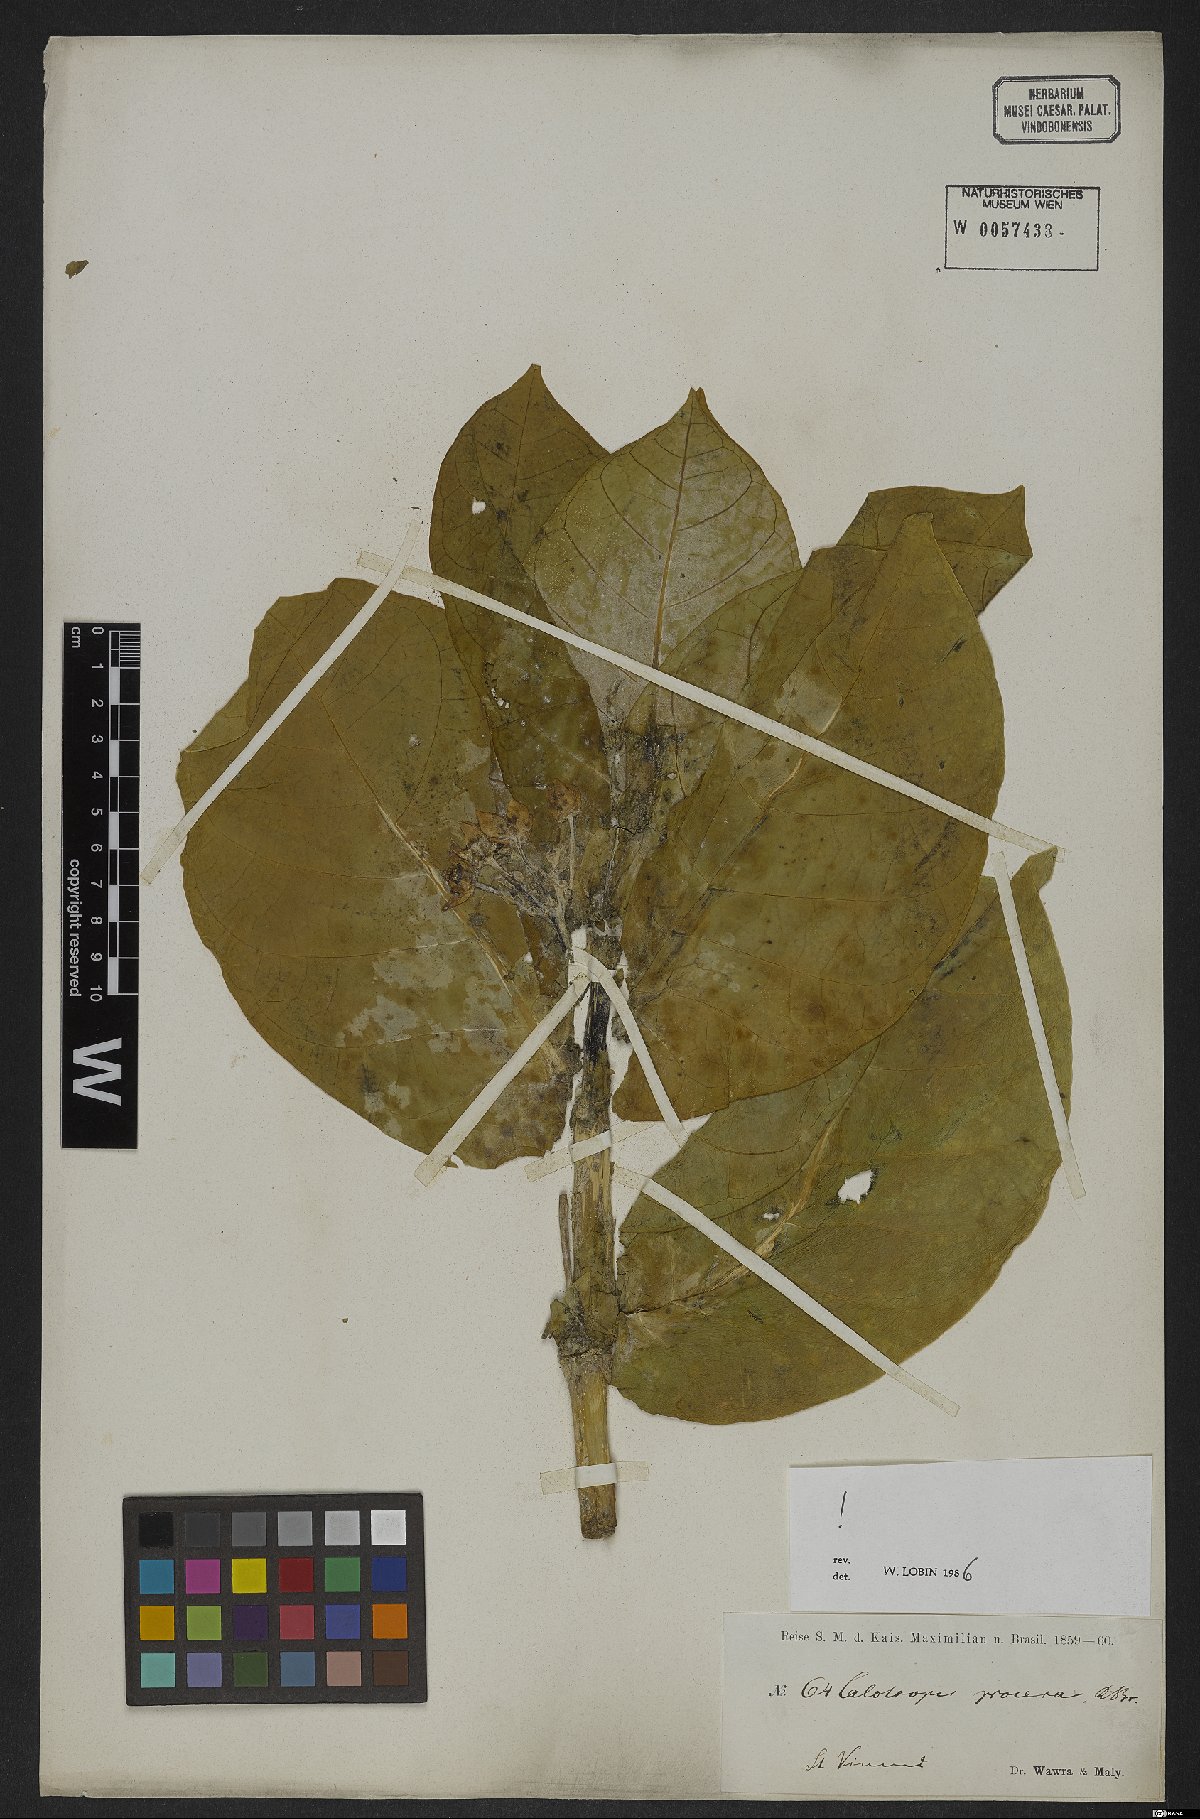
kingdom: Plantae
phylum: Tracheophyta
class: Magnoliopsida
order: Gentianales
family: Apocynaceae
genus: Calotropis
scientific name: Calotropis procera
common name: Roostertree
